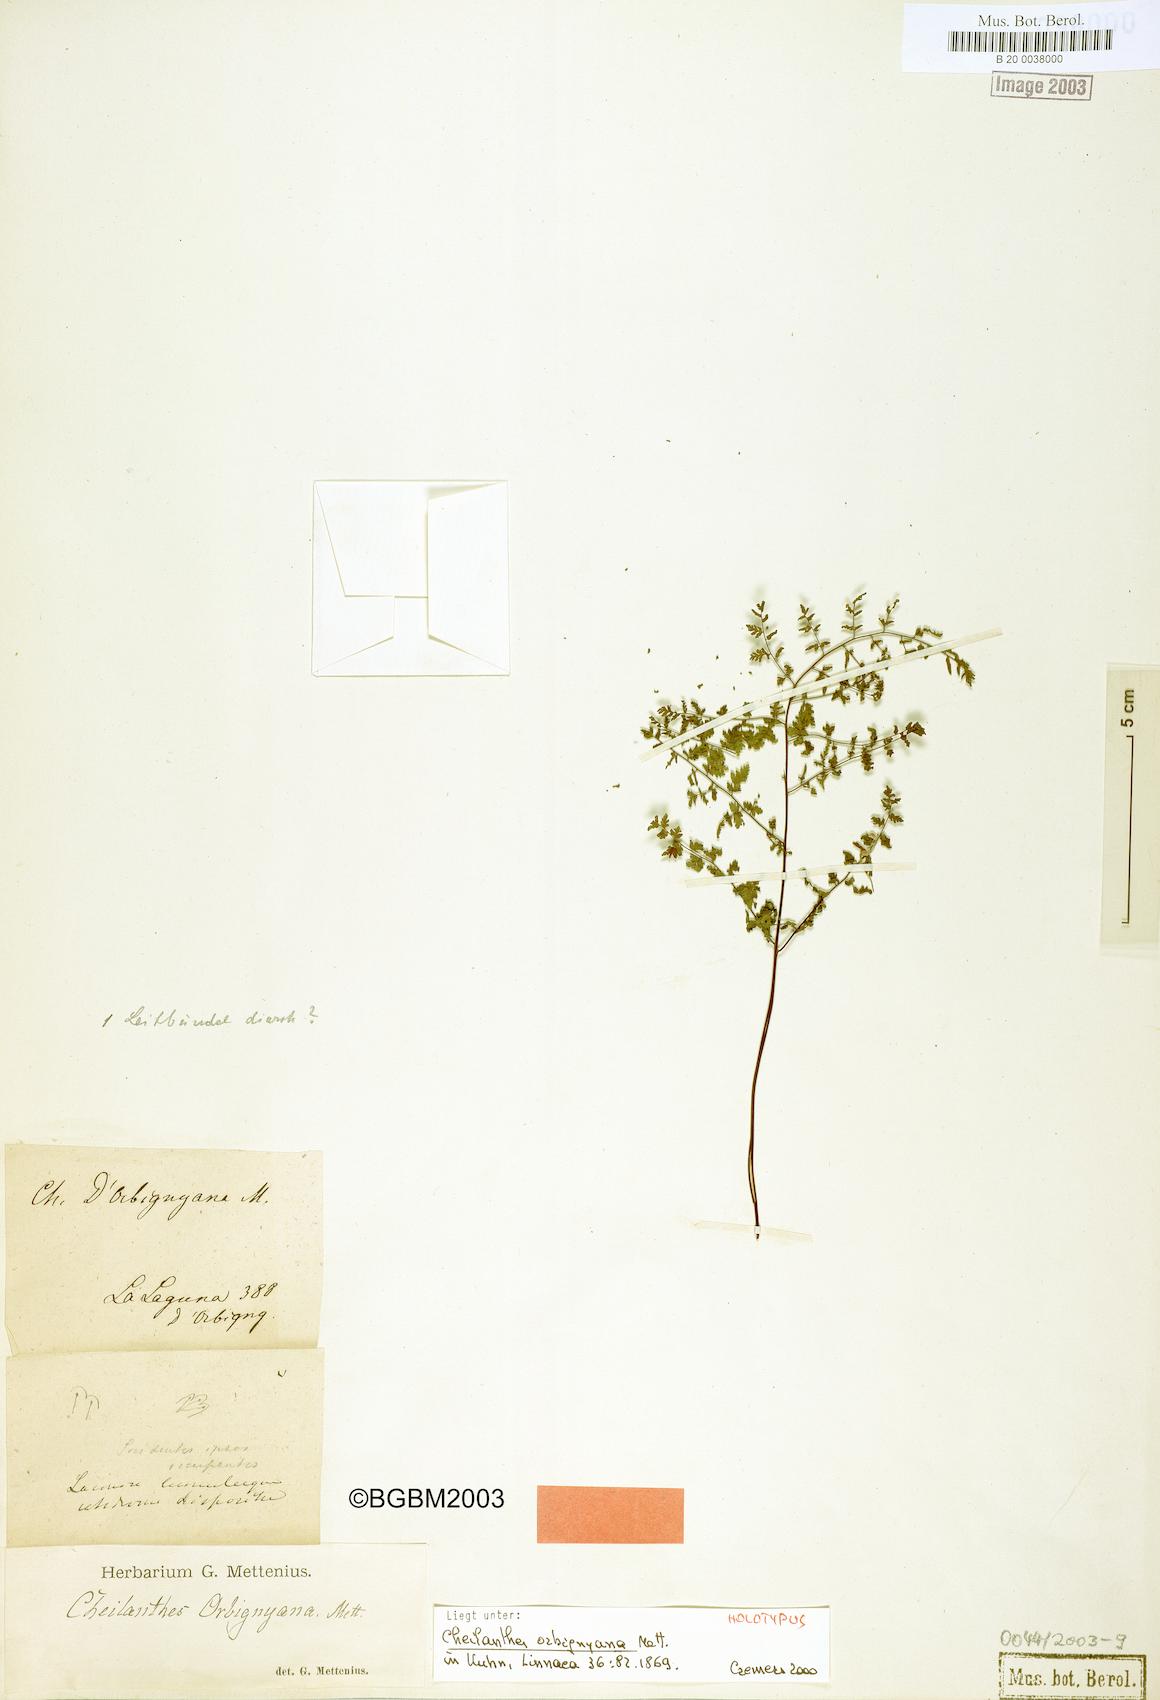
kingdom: Plantae
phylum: Tracheophyta
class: Polypodiopsida
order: Polypodiales
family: Pteridaceae
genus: Adiantopsis
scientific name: Adiantopsis orbignyana
